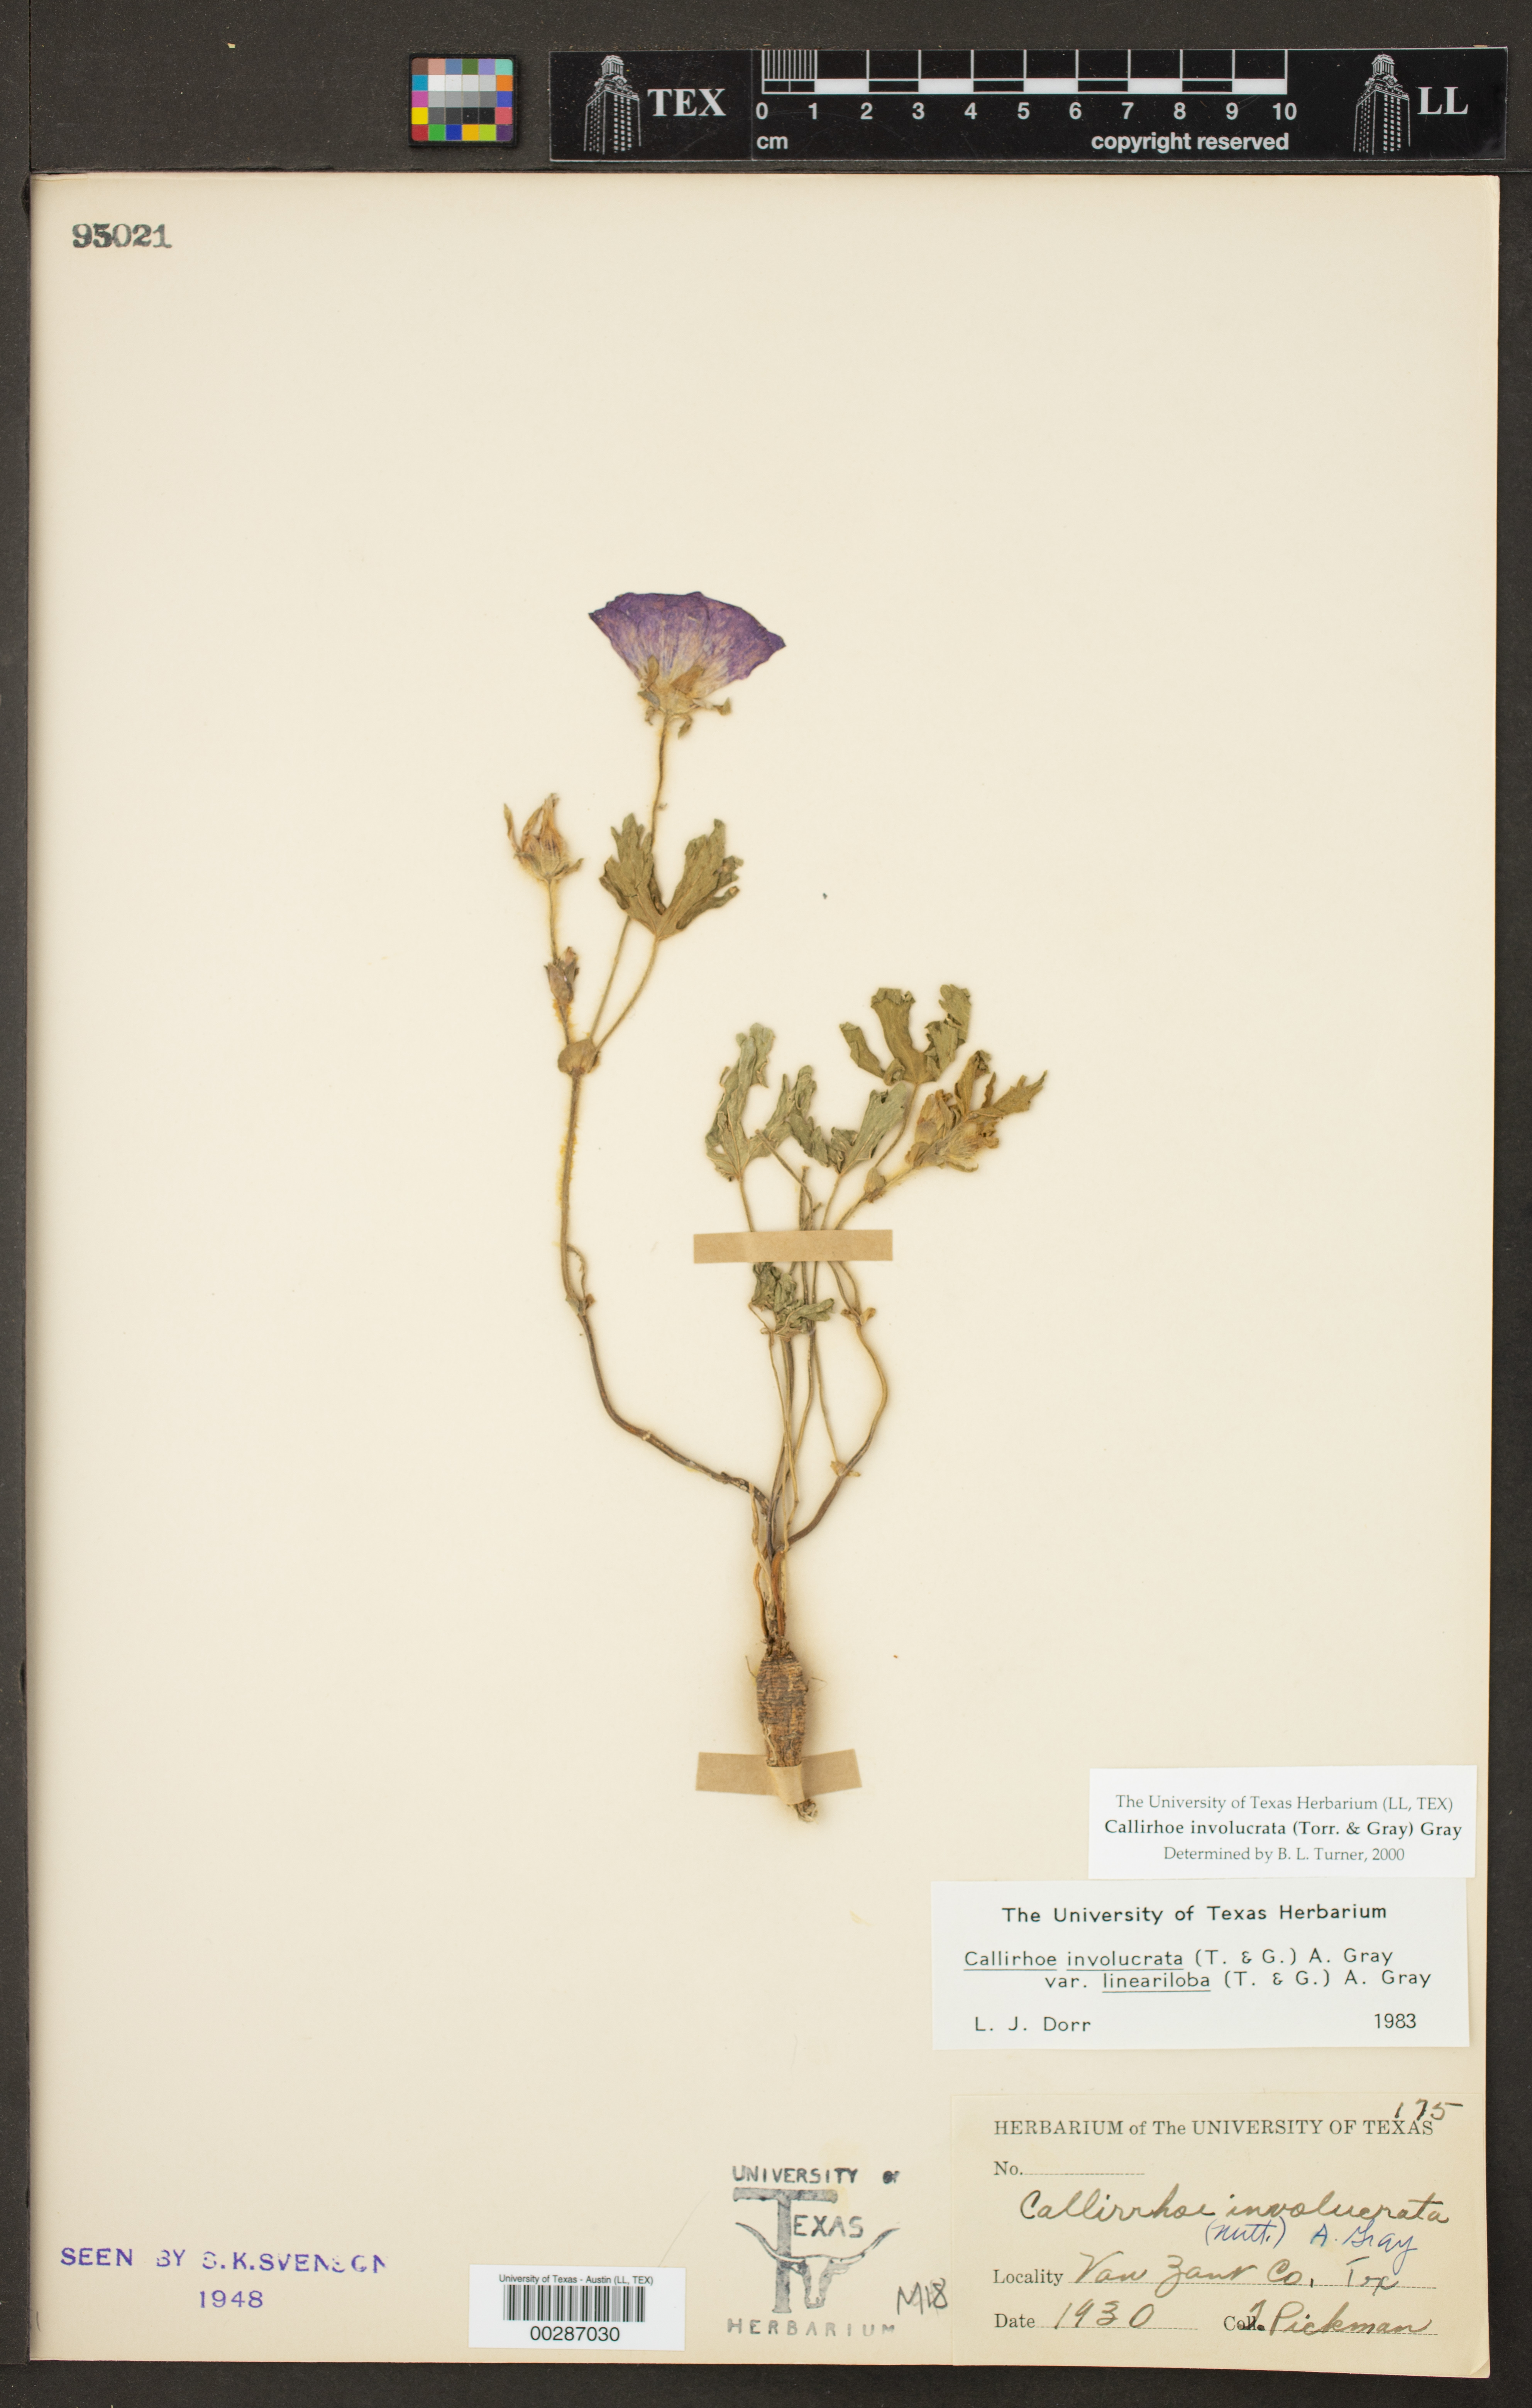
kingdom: Plantae
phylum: Tracheophyta
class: Magnoliopsida
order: Malvales
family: Malvaceae
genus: Callirhoe
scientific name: Callirhoe involucrata
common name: Purple poppy-mallow
